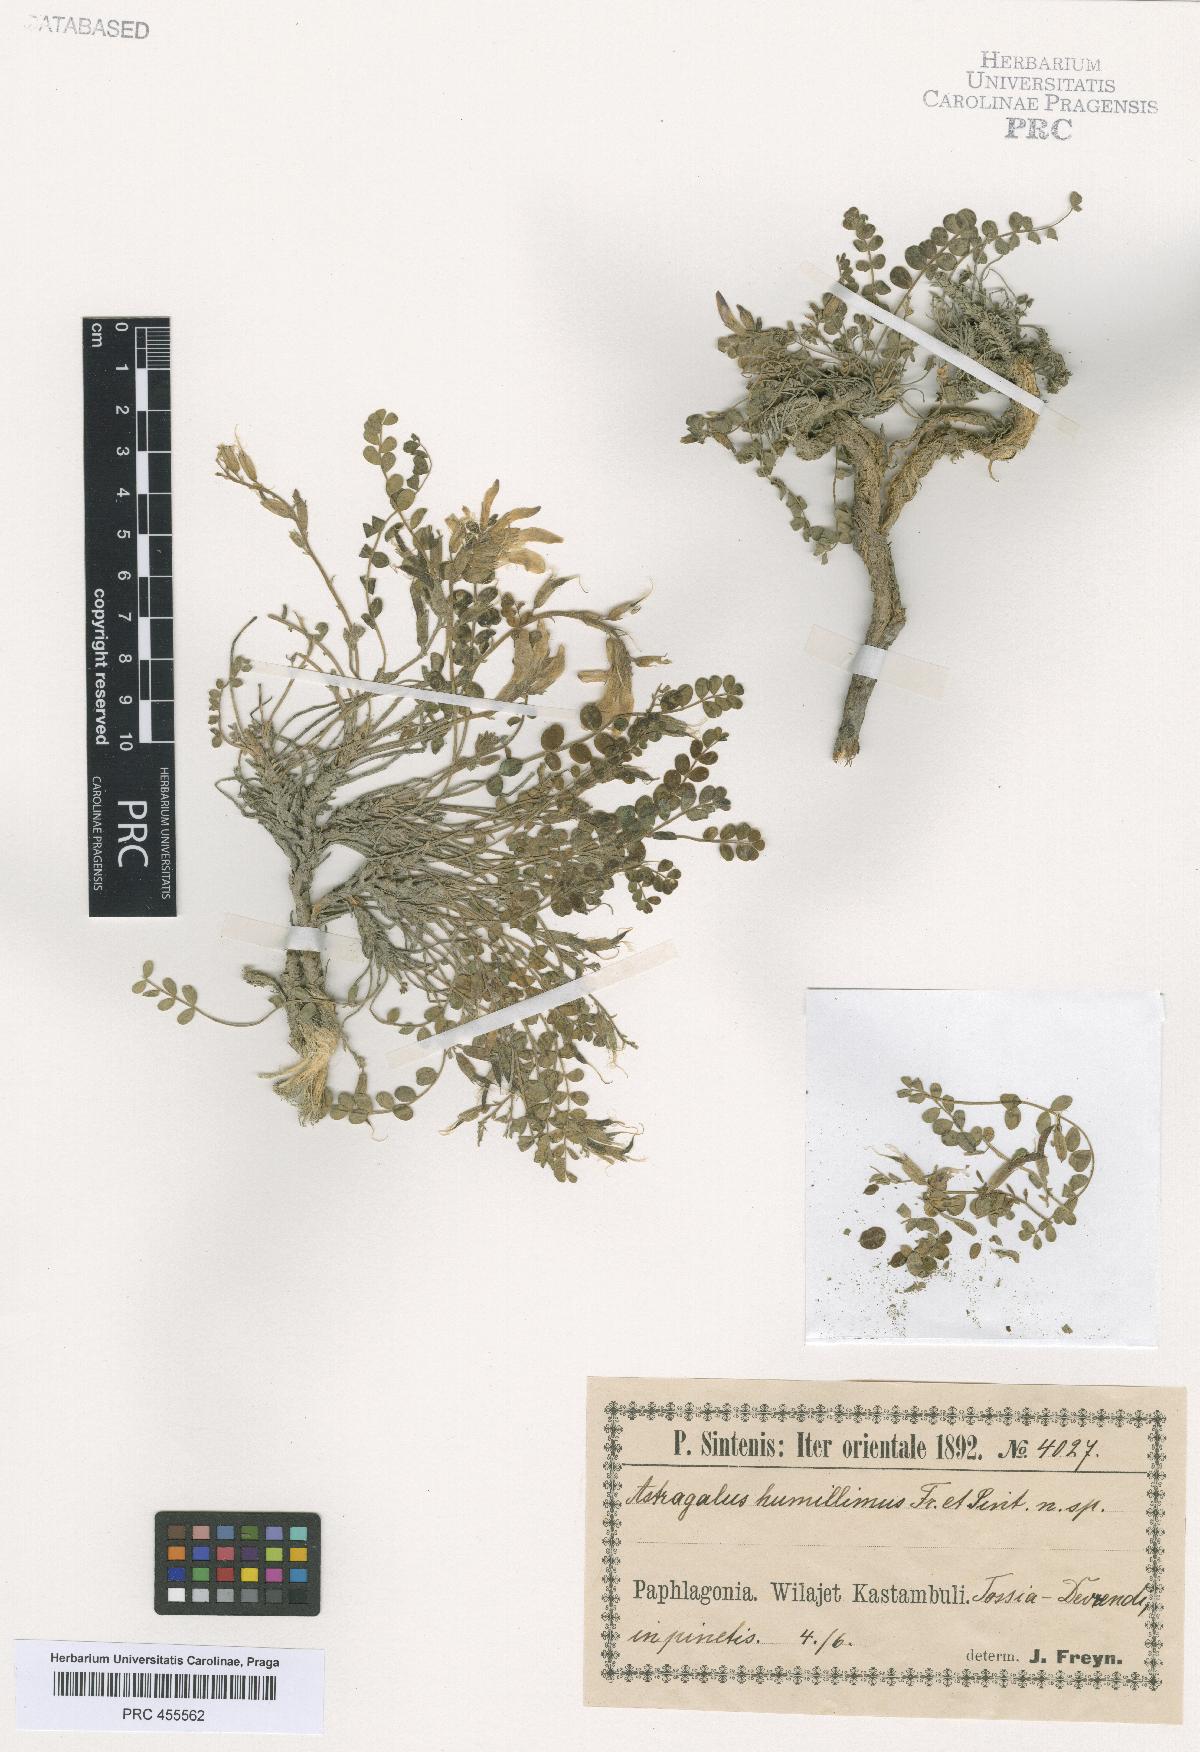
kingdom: Plantae
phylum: Tracheophyta
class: Magnoliopsida
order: Fabales
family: Fabaceae
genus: Astragalus
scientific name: Astragalus prosgaeus
